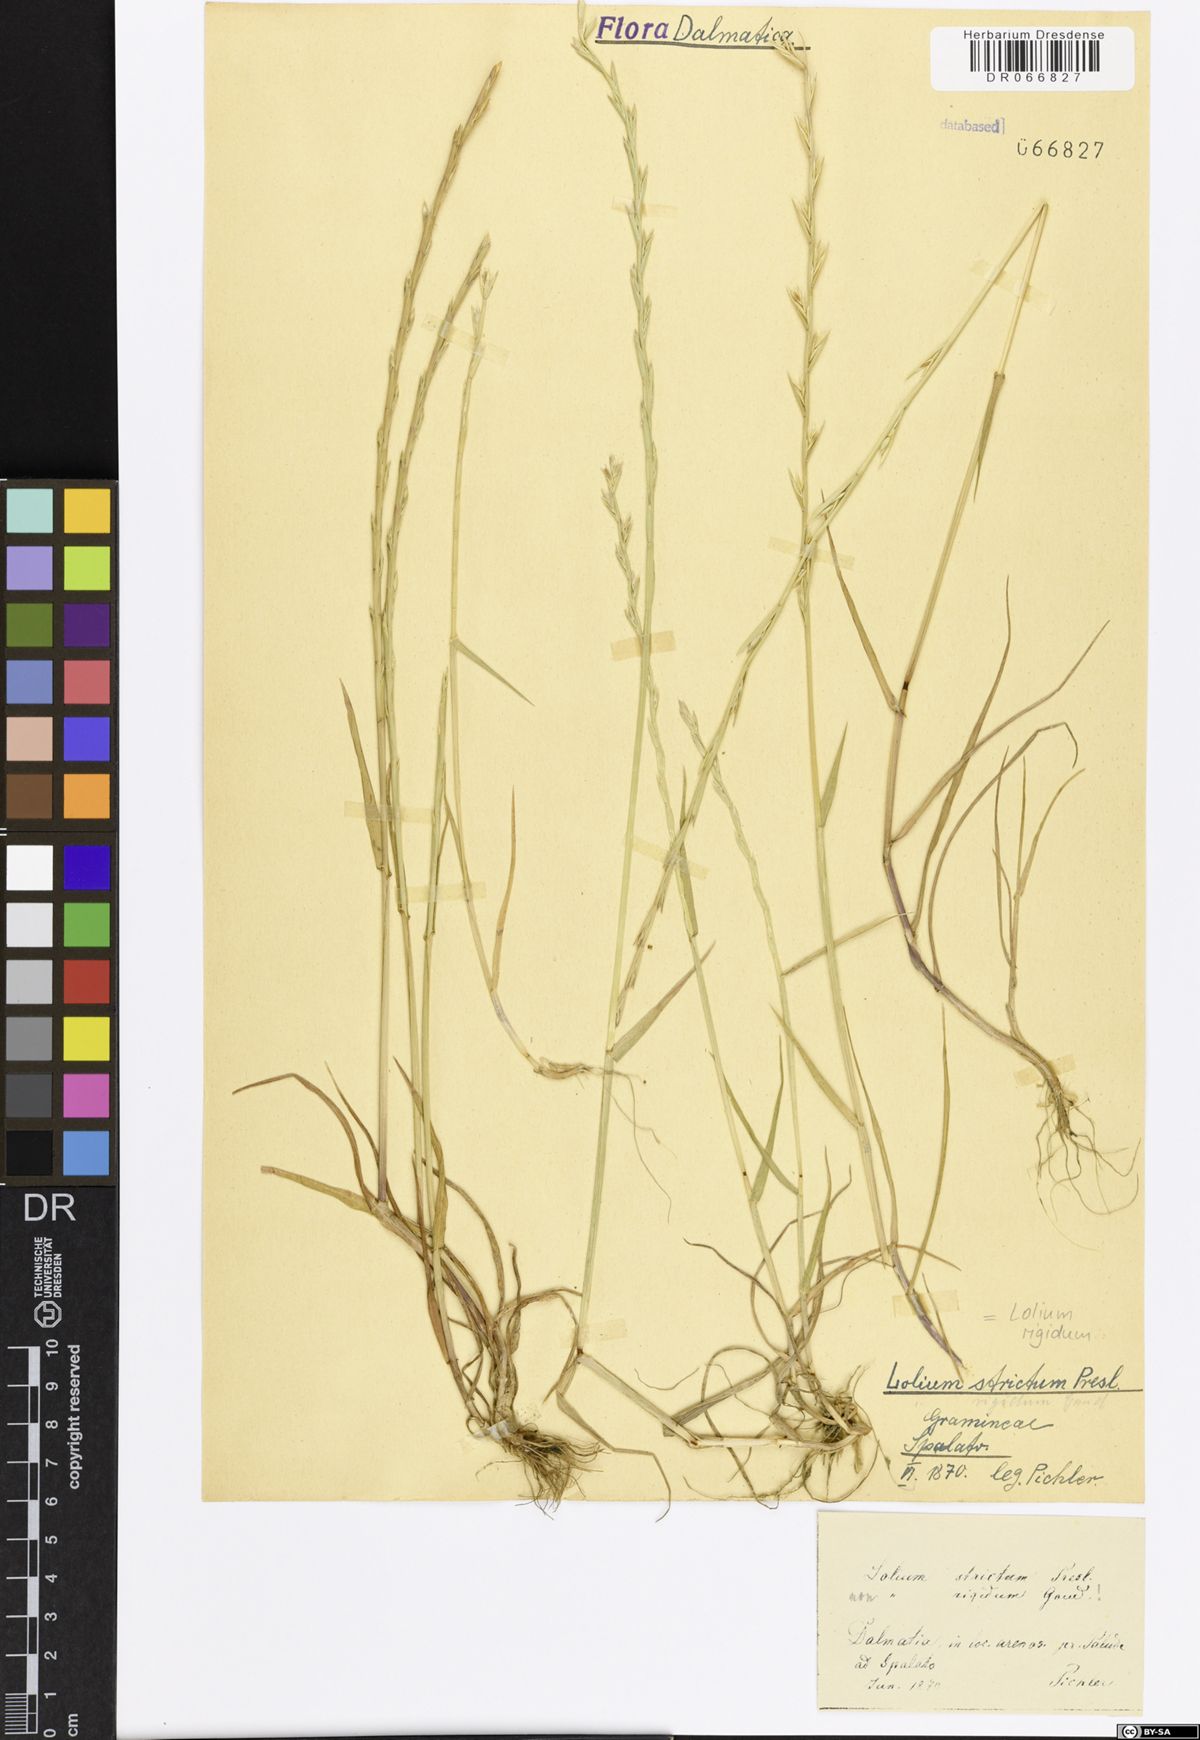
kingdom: Plantae
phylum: Tracheophyta
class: Liliopsida
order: Poales
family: Poaceae
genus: Lolium
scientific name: Lolium rigidum
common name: Wimmera ryegrass
